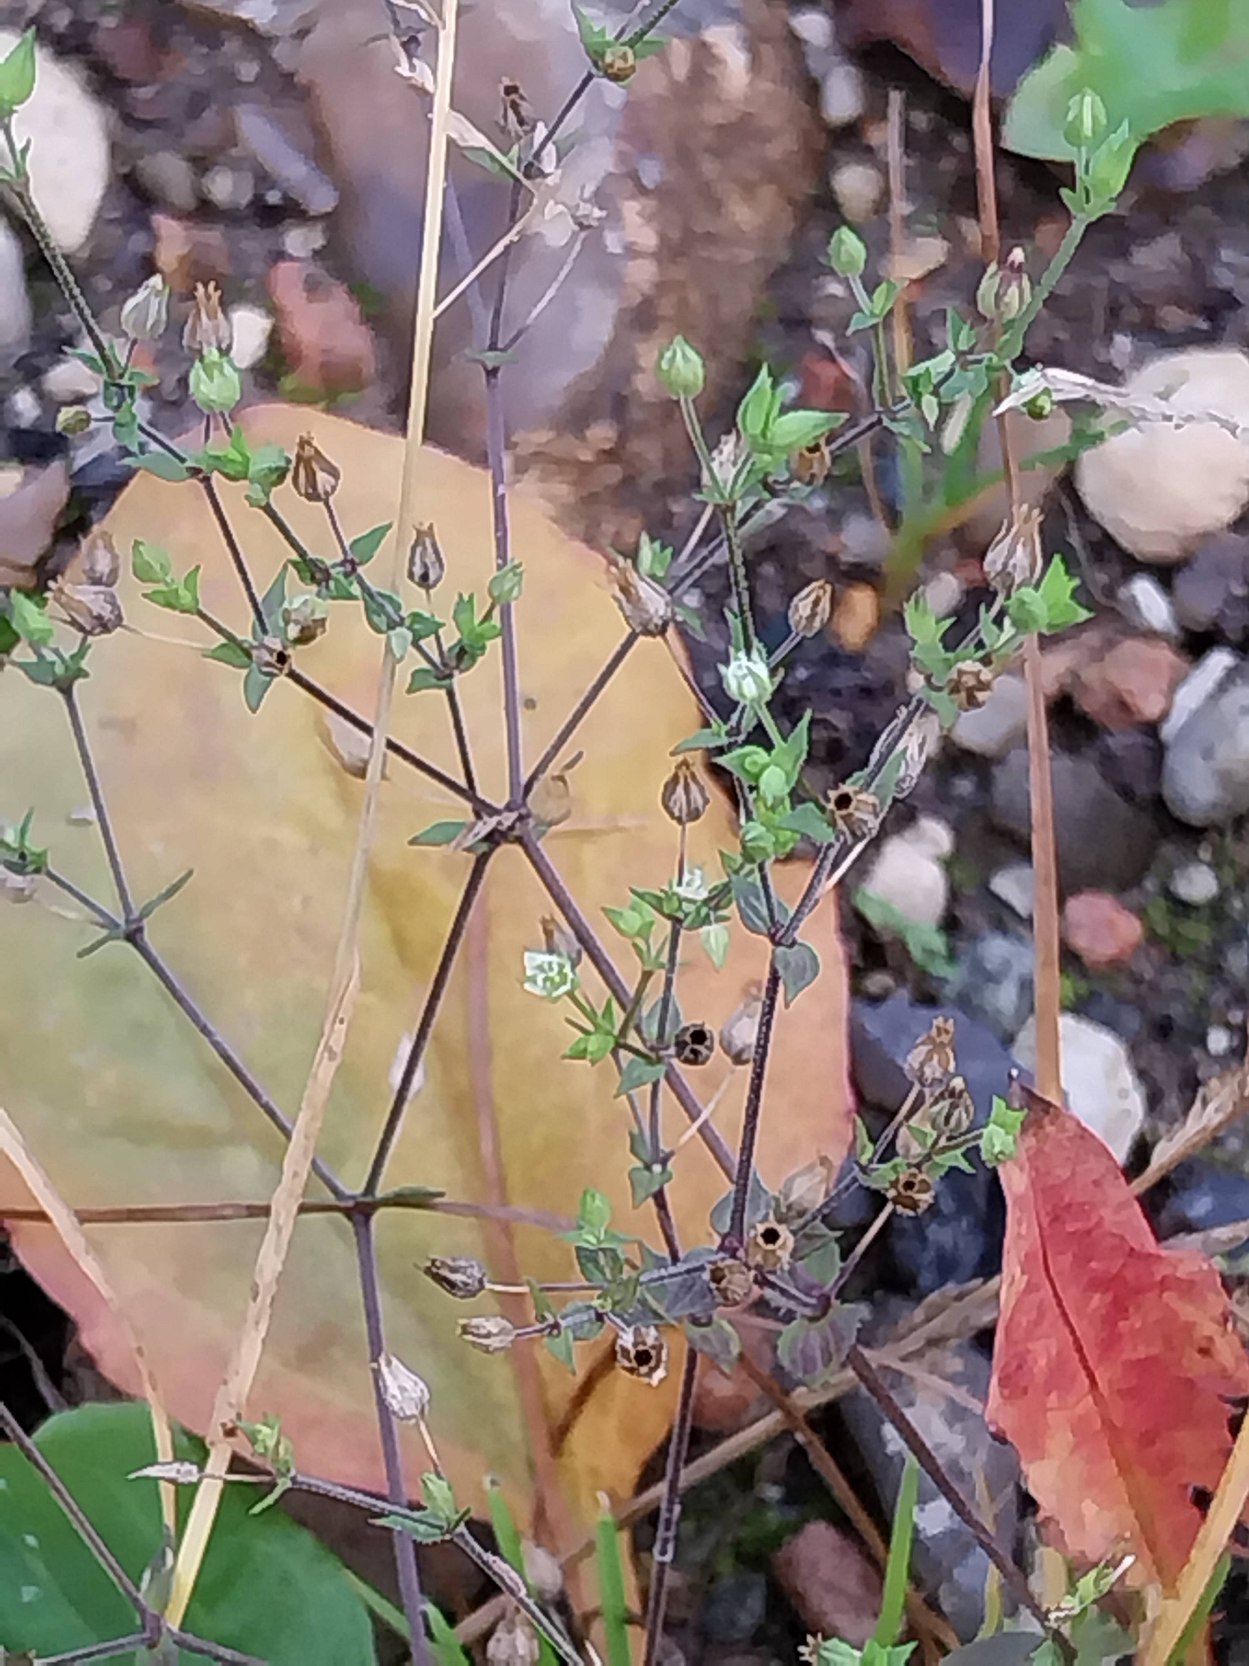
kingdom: Plantae
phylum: Tracheophyta
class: Magnoliopsida
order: Caryophyllales
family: Caryophyllaceae
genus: Arenaria
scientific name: Arenaria serpyllifolia
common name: Almindelig markarve
